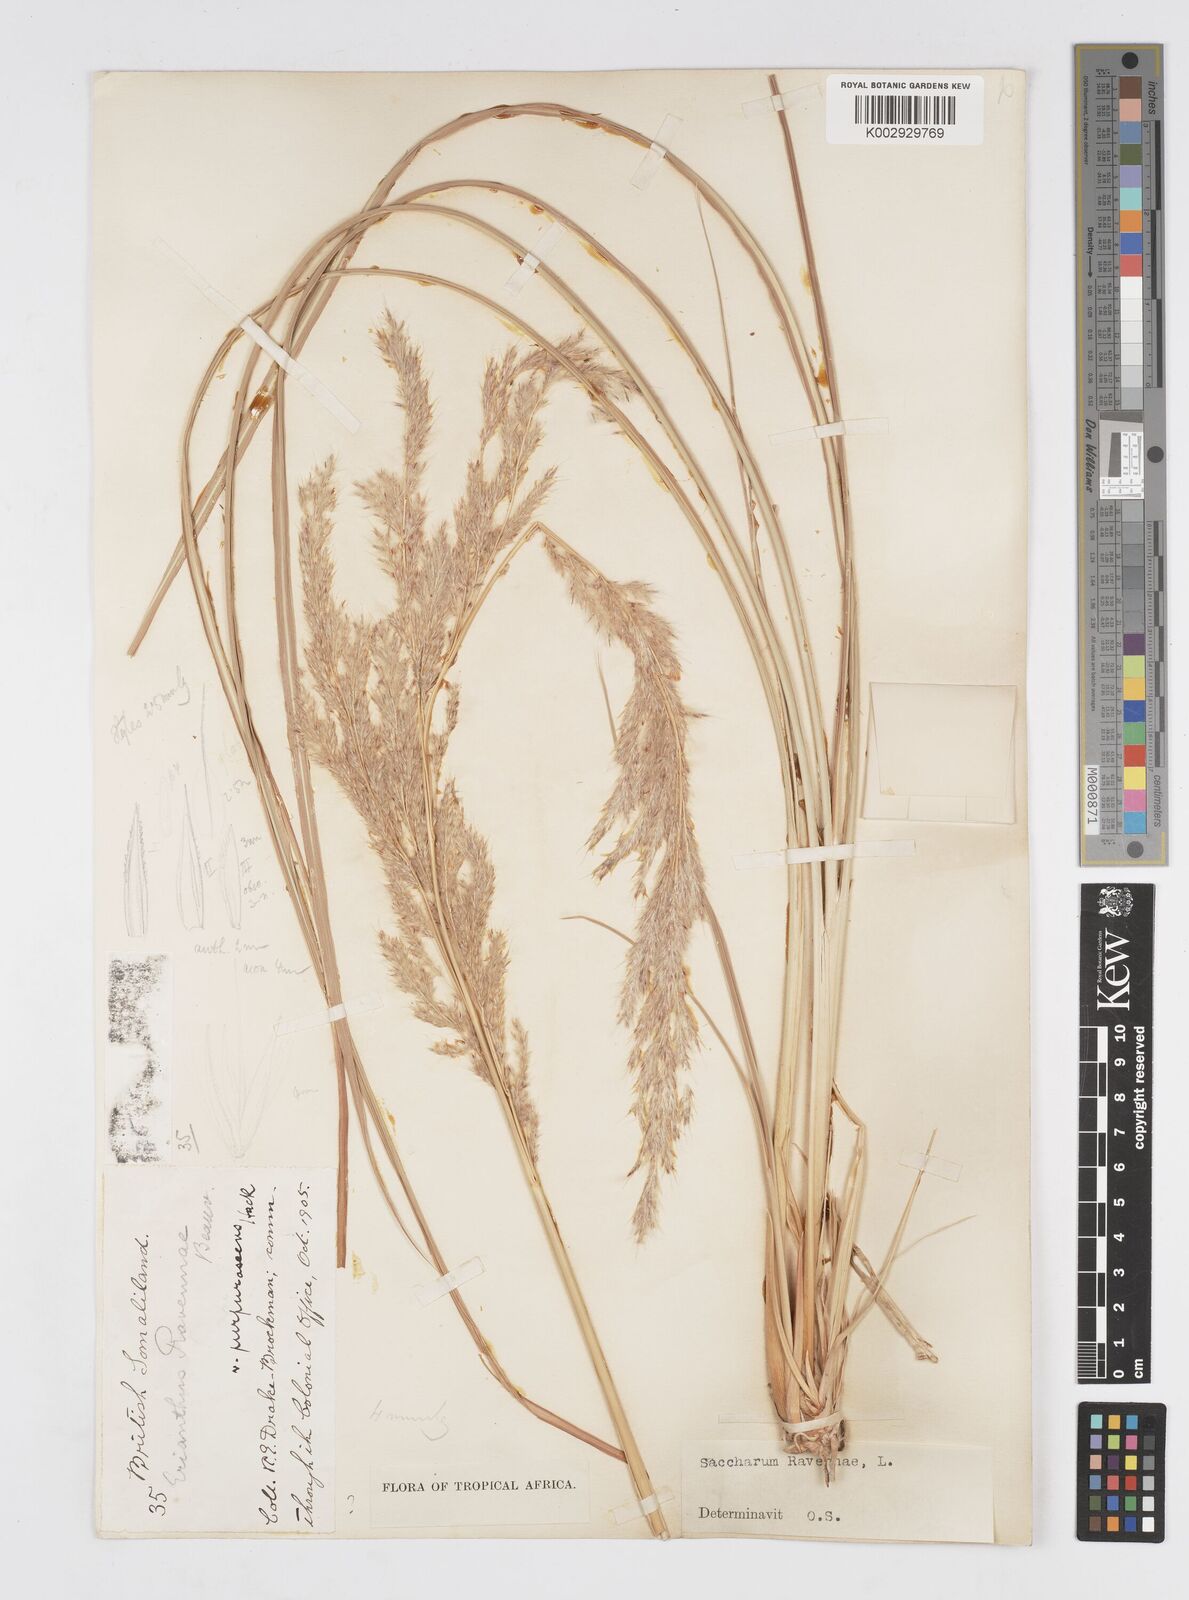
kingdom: Plantae
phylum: Tracheophyta
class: Liliopsida
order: Poales
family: Poaceae
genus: Tripidium
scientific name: Tripidium ravennae
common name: Ravenna grass
